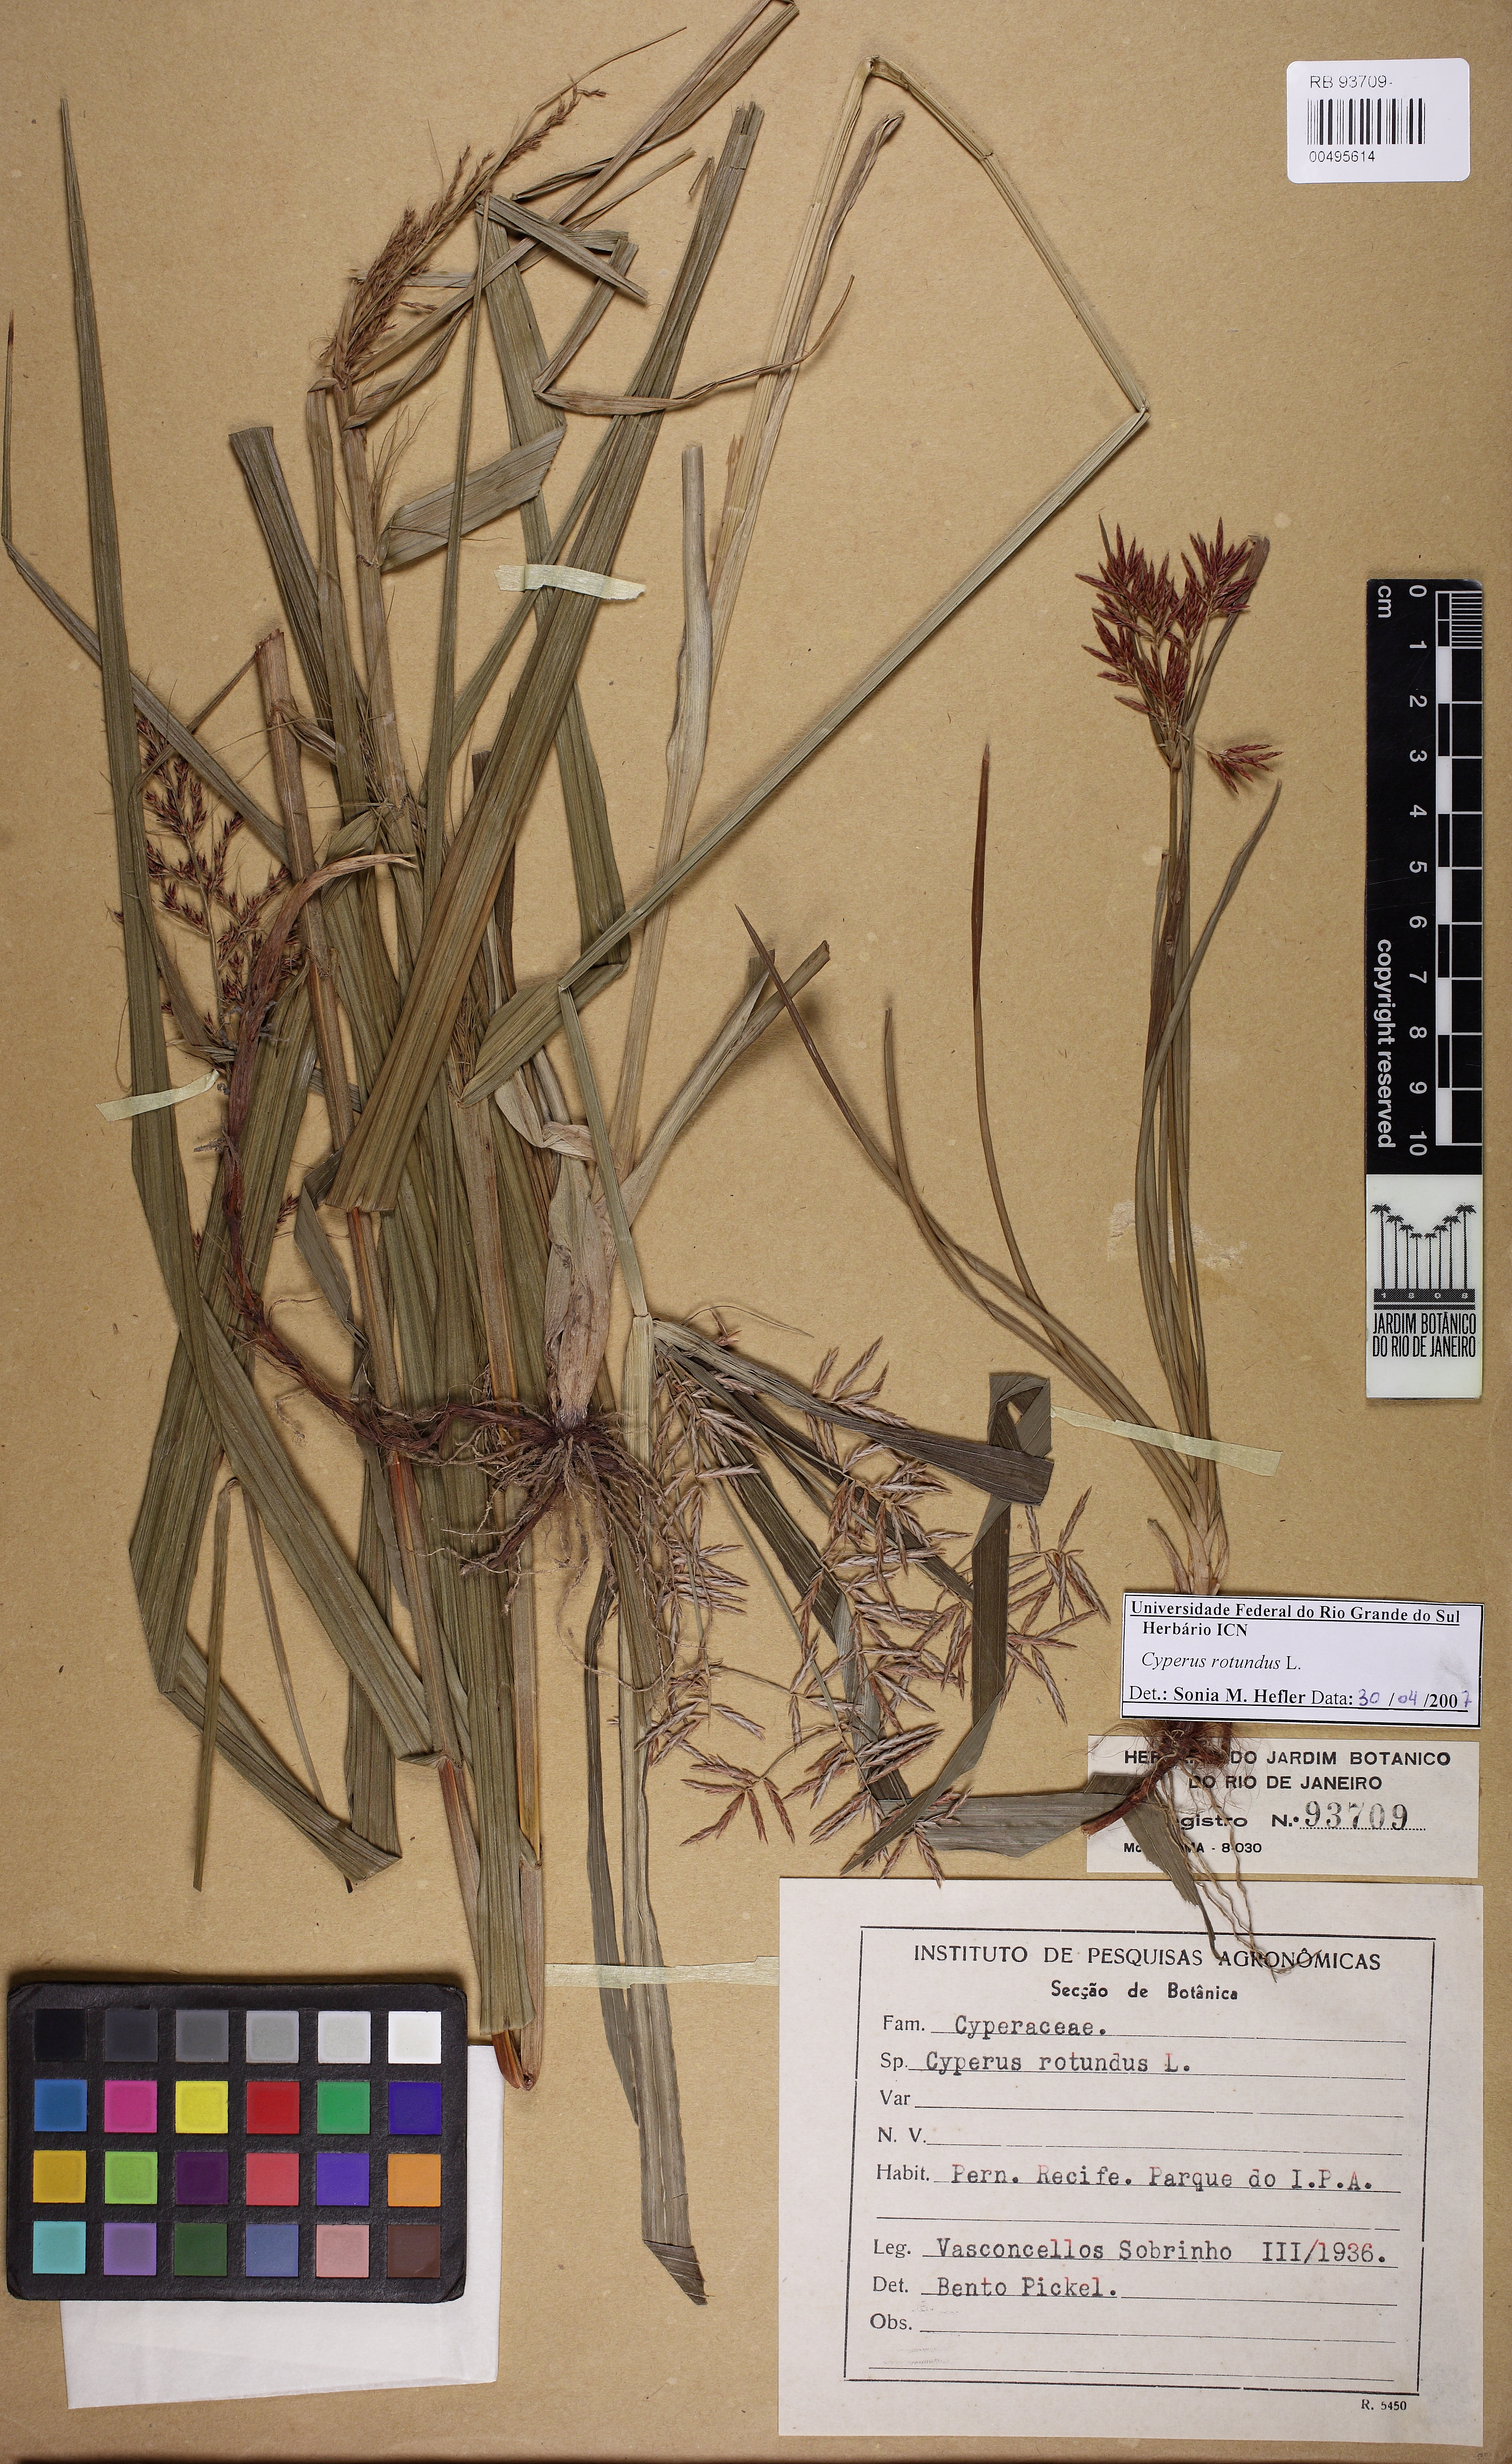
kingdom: Plantae
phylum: Tracheophyta
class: Liliopsida
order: Poales
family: Cyperaceae
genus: Cyperus
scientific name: Cyperus rotundus
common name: Nutgrass
